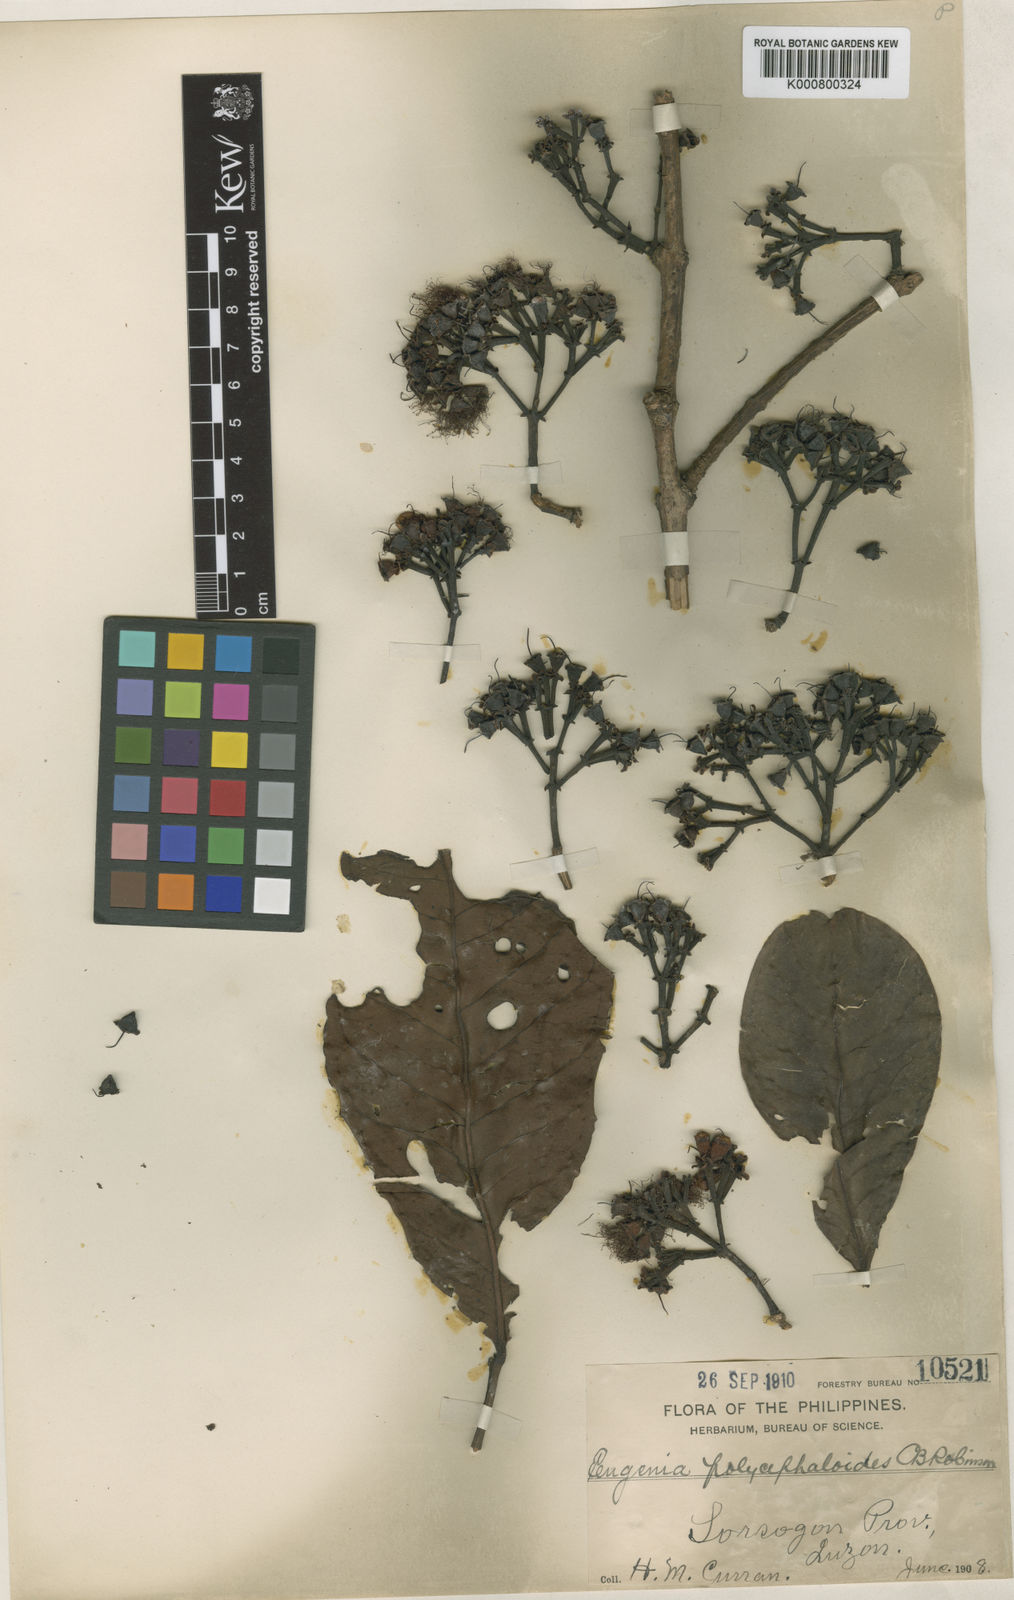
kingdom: Plantae
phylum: Tracheophyta
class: Magnoliopsida
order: Myrtales
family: Myrtaceae
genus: Syzygium
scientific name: Syzygium polycephaloides
